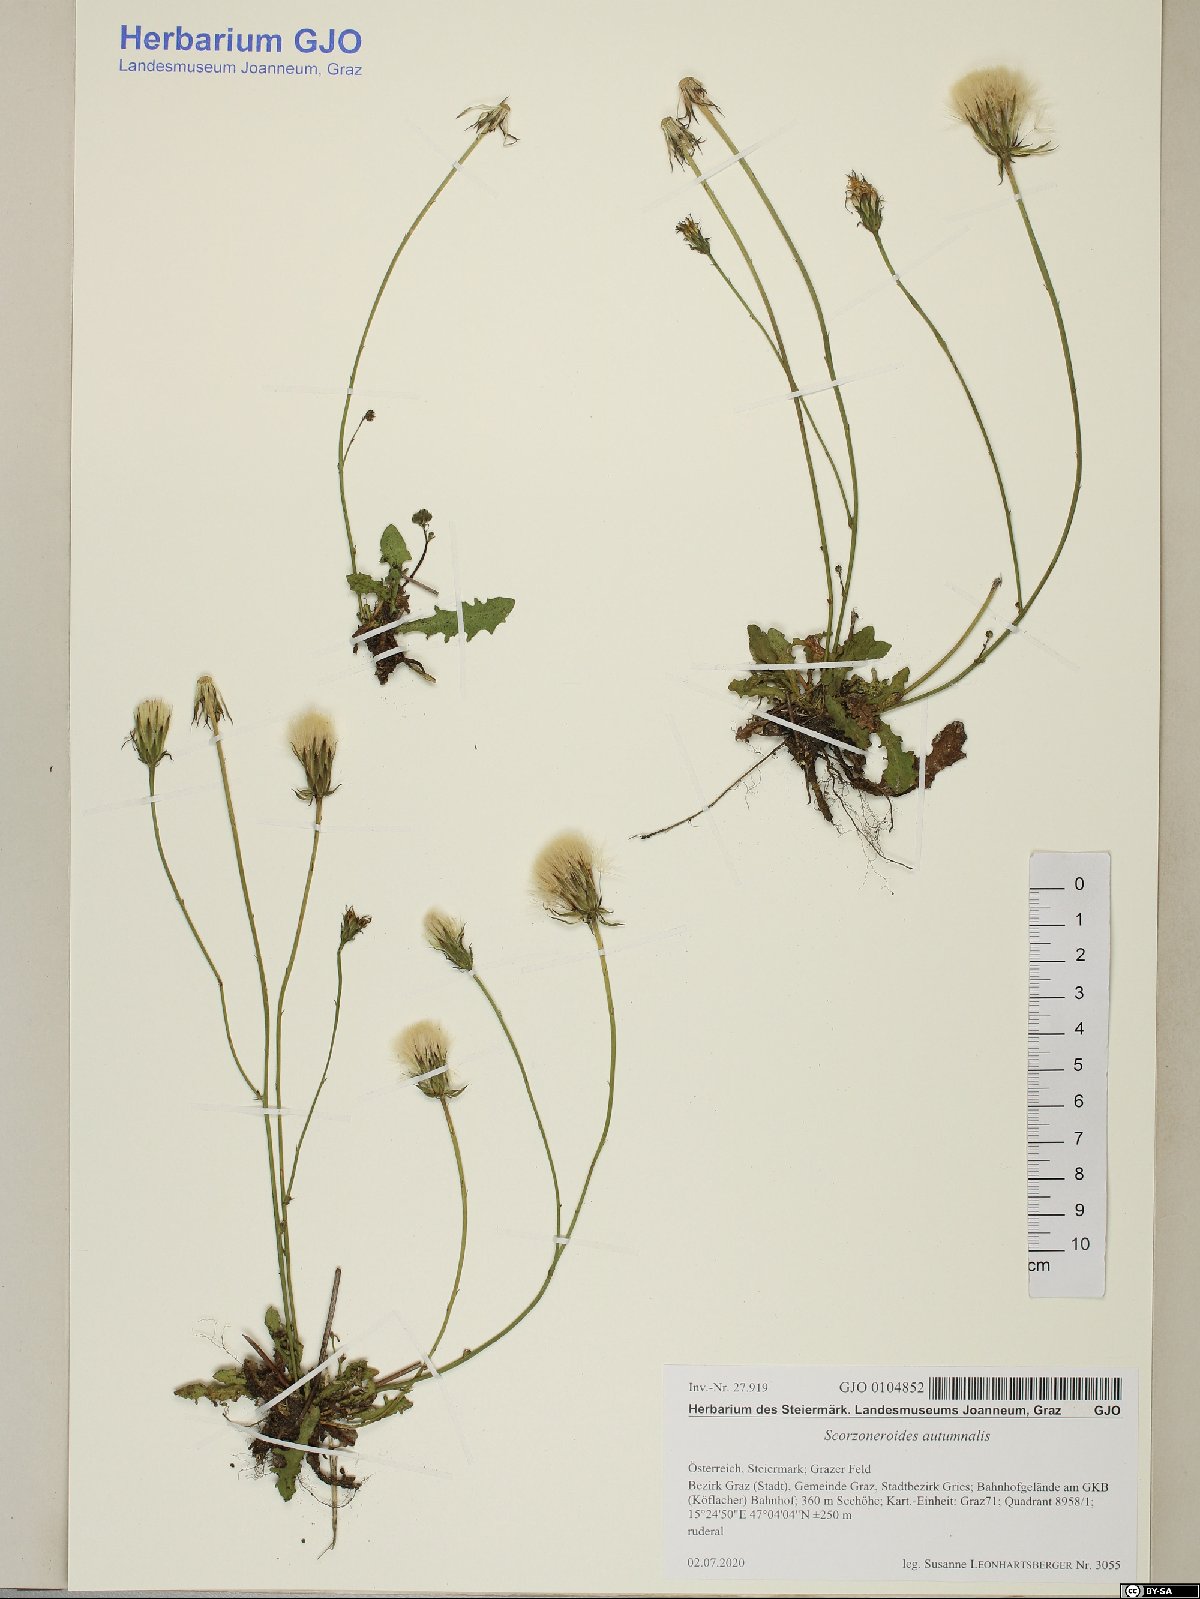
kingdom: Plantae
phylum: Tracheophyta
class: Magnoliopsida
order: Asterales
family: Asteraceae
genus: Scorzoneroides
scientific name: Scorzoneroides autumnalis
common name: Autumn hawkbit
